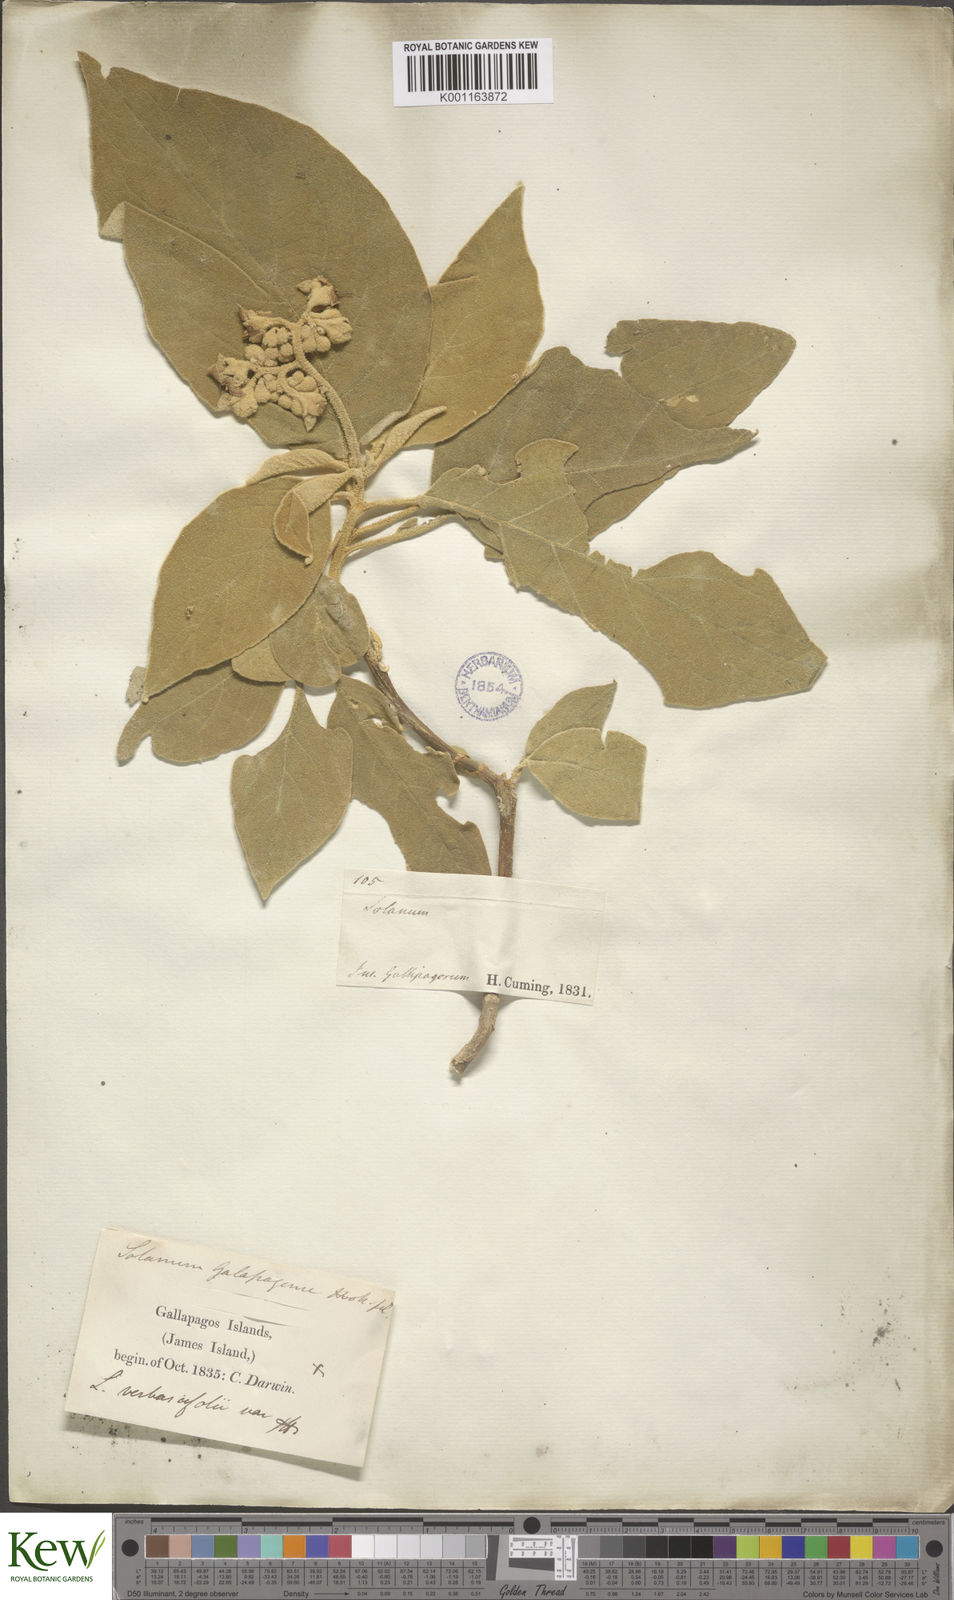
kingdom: Plantae
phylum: Tracheophyta
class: Magnoliopsida
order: Solanales
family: Solanaceae
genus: Solanum
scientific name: Solanum erianthum
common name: Tobacco-tree
